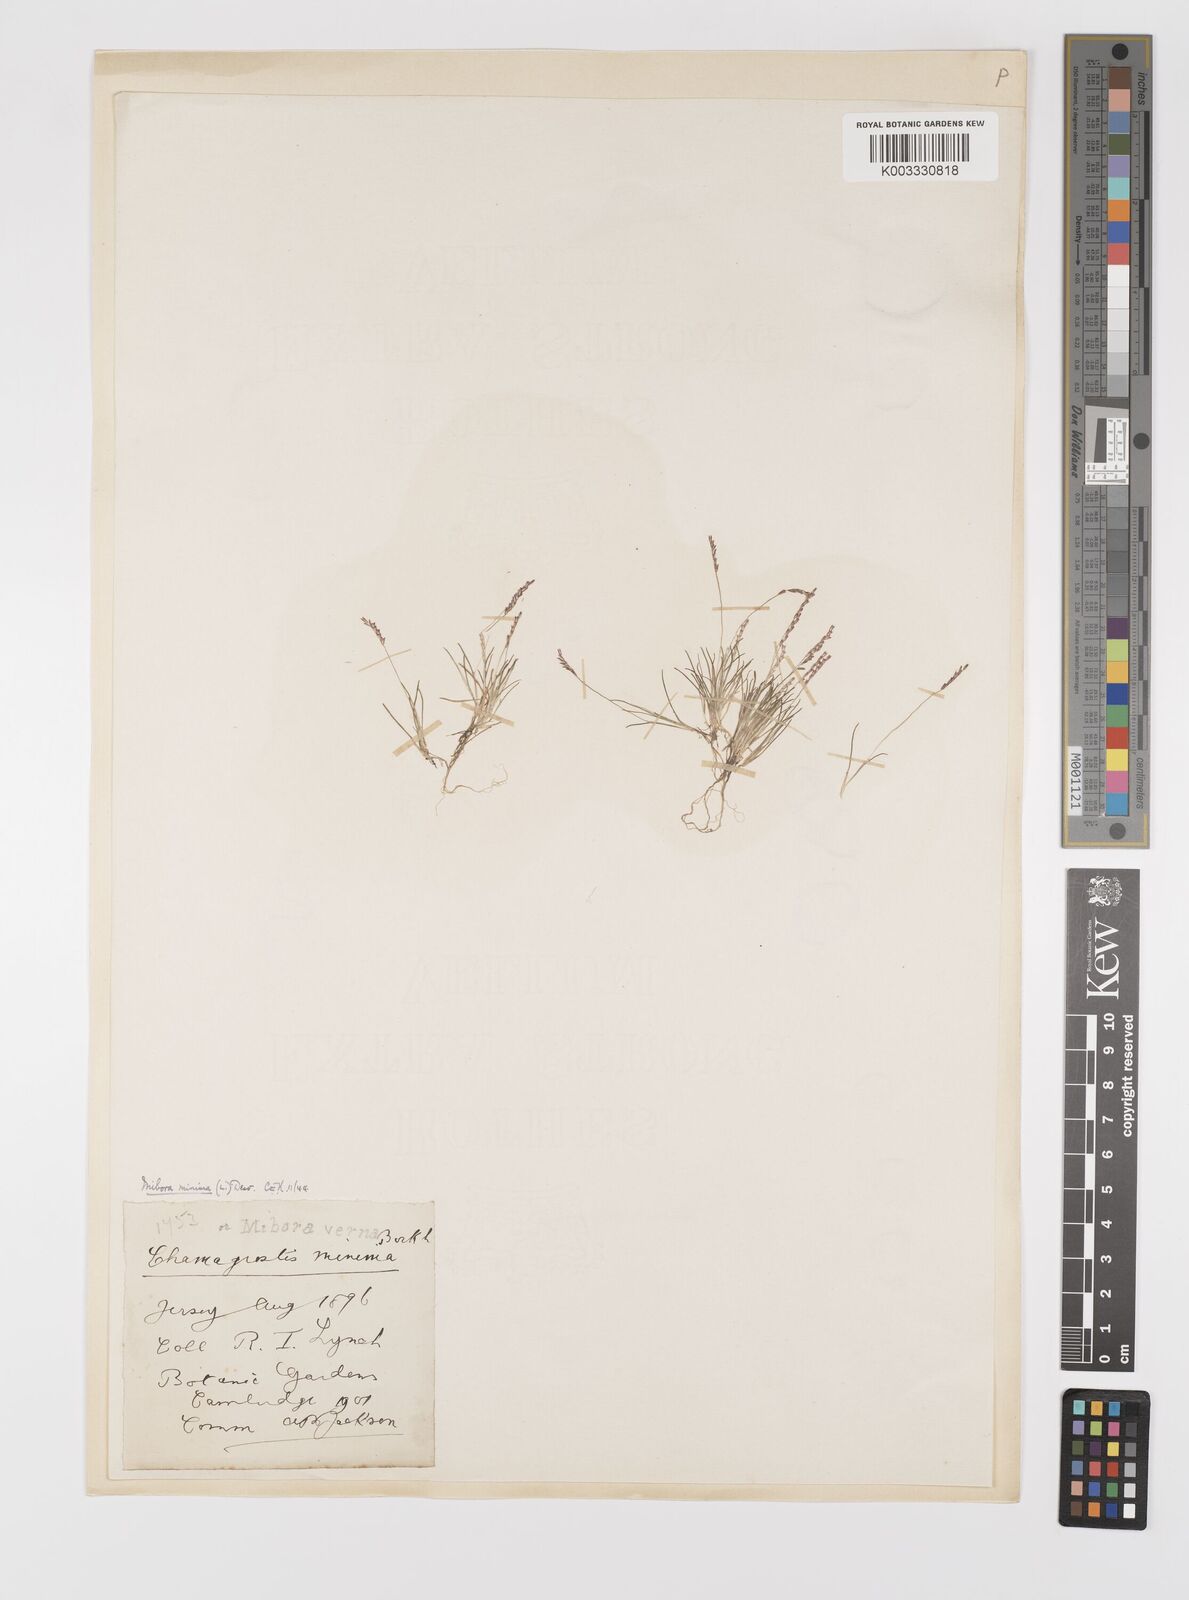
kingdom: Plantae
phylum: Tracheophyta
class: Liliopsida
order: Poales
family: Poaceae
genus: Mibora
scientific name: Mibora minima
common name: Early sand-grass
